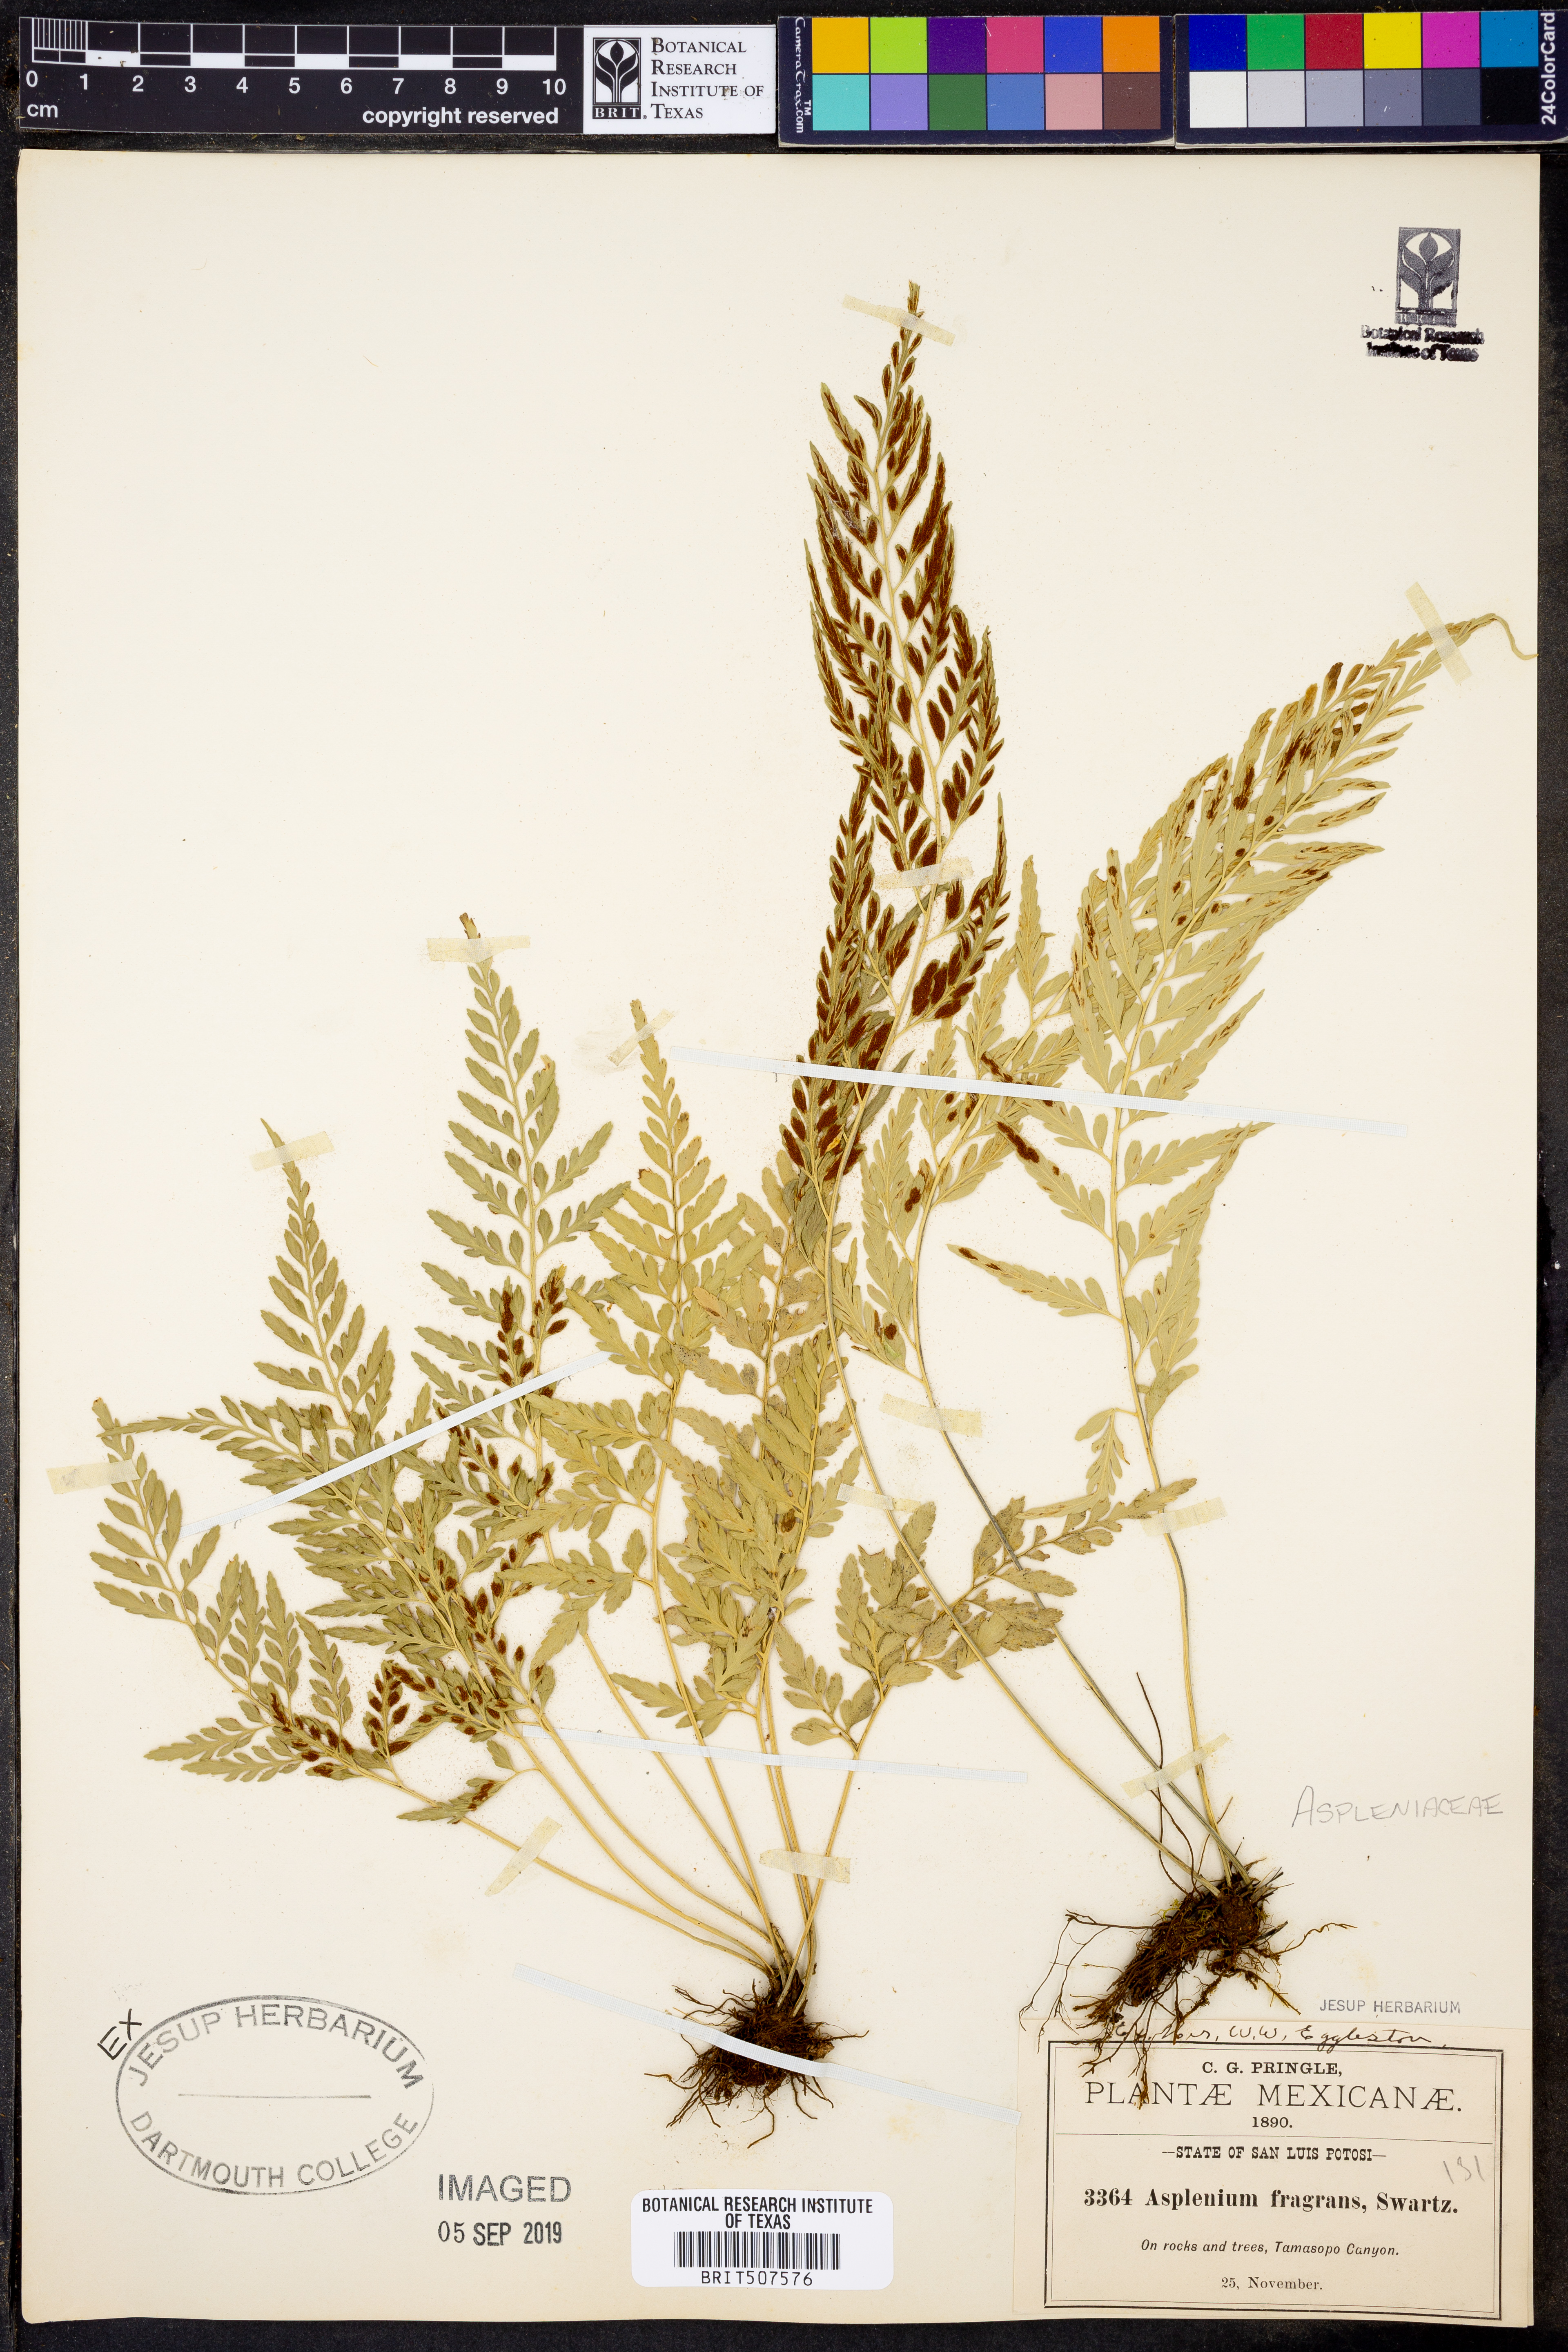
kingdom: Plantae
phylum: Tracheophyta
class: Polypodiopsida
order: Polypodiales
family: Aspleniaceae
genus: Asplenium
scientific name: Asplenium hastatum
